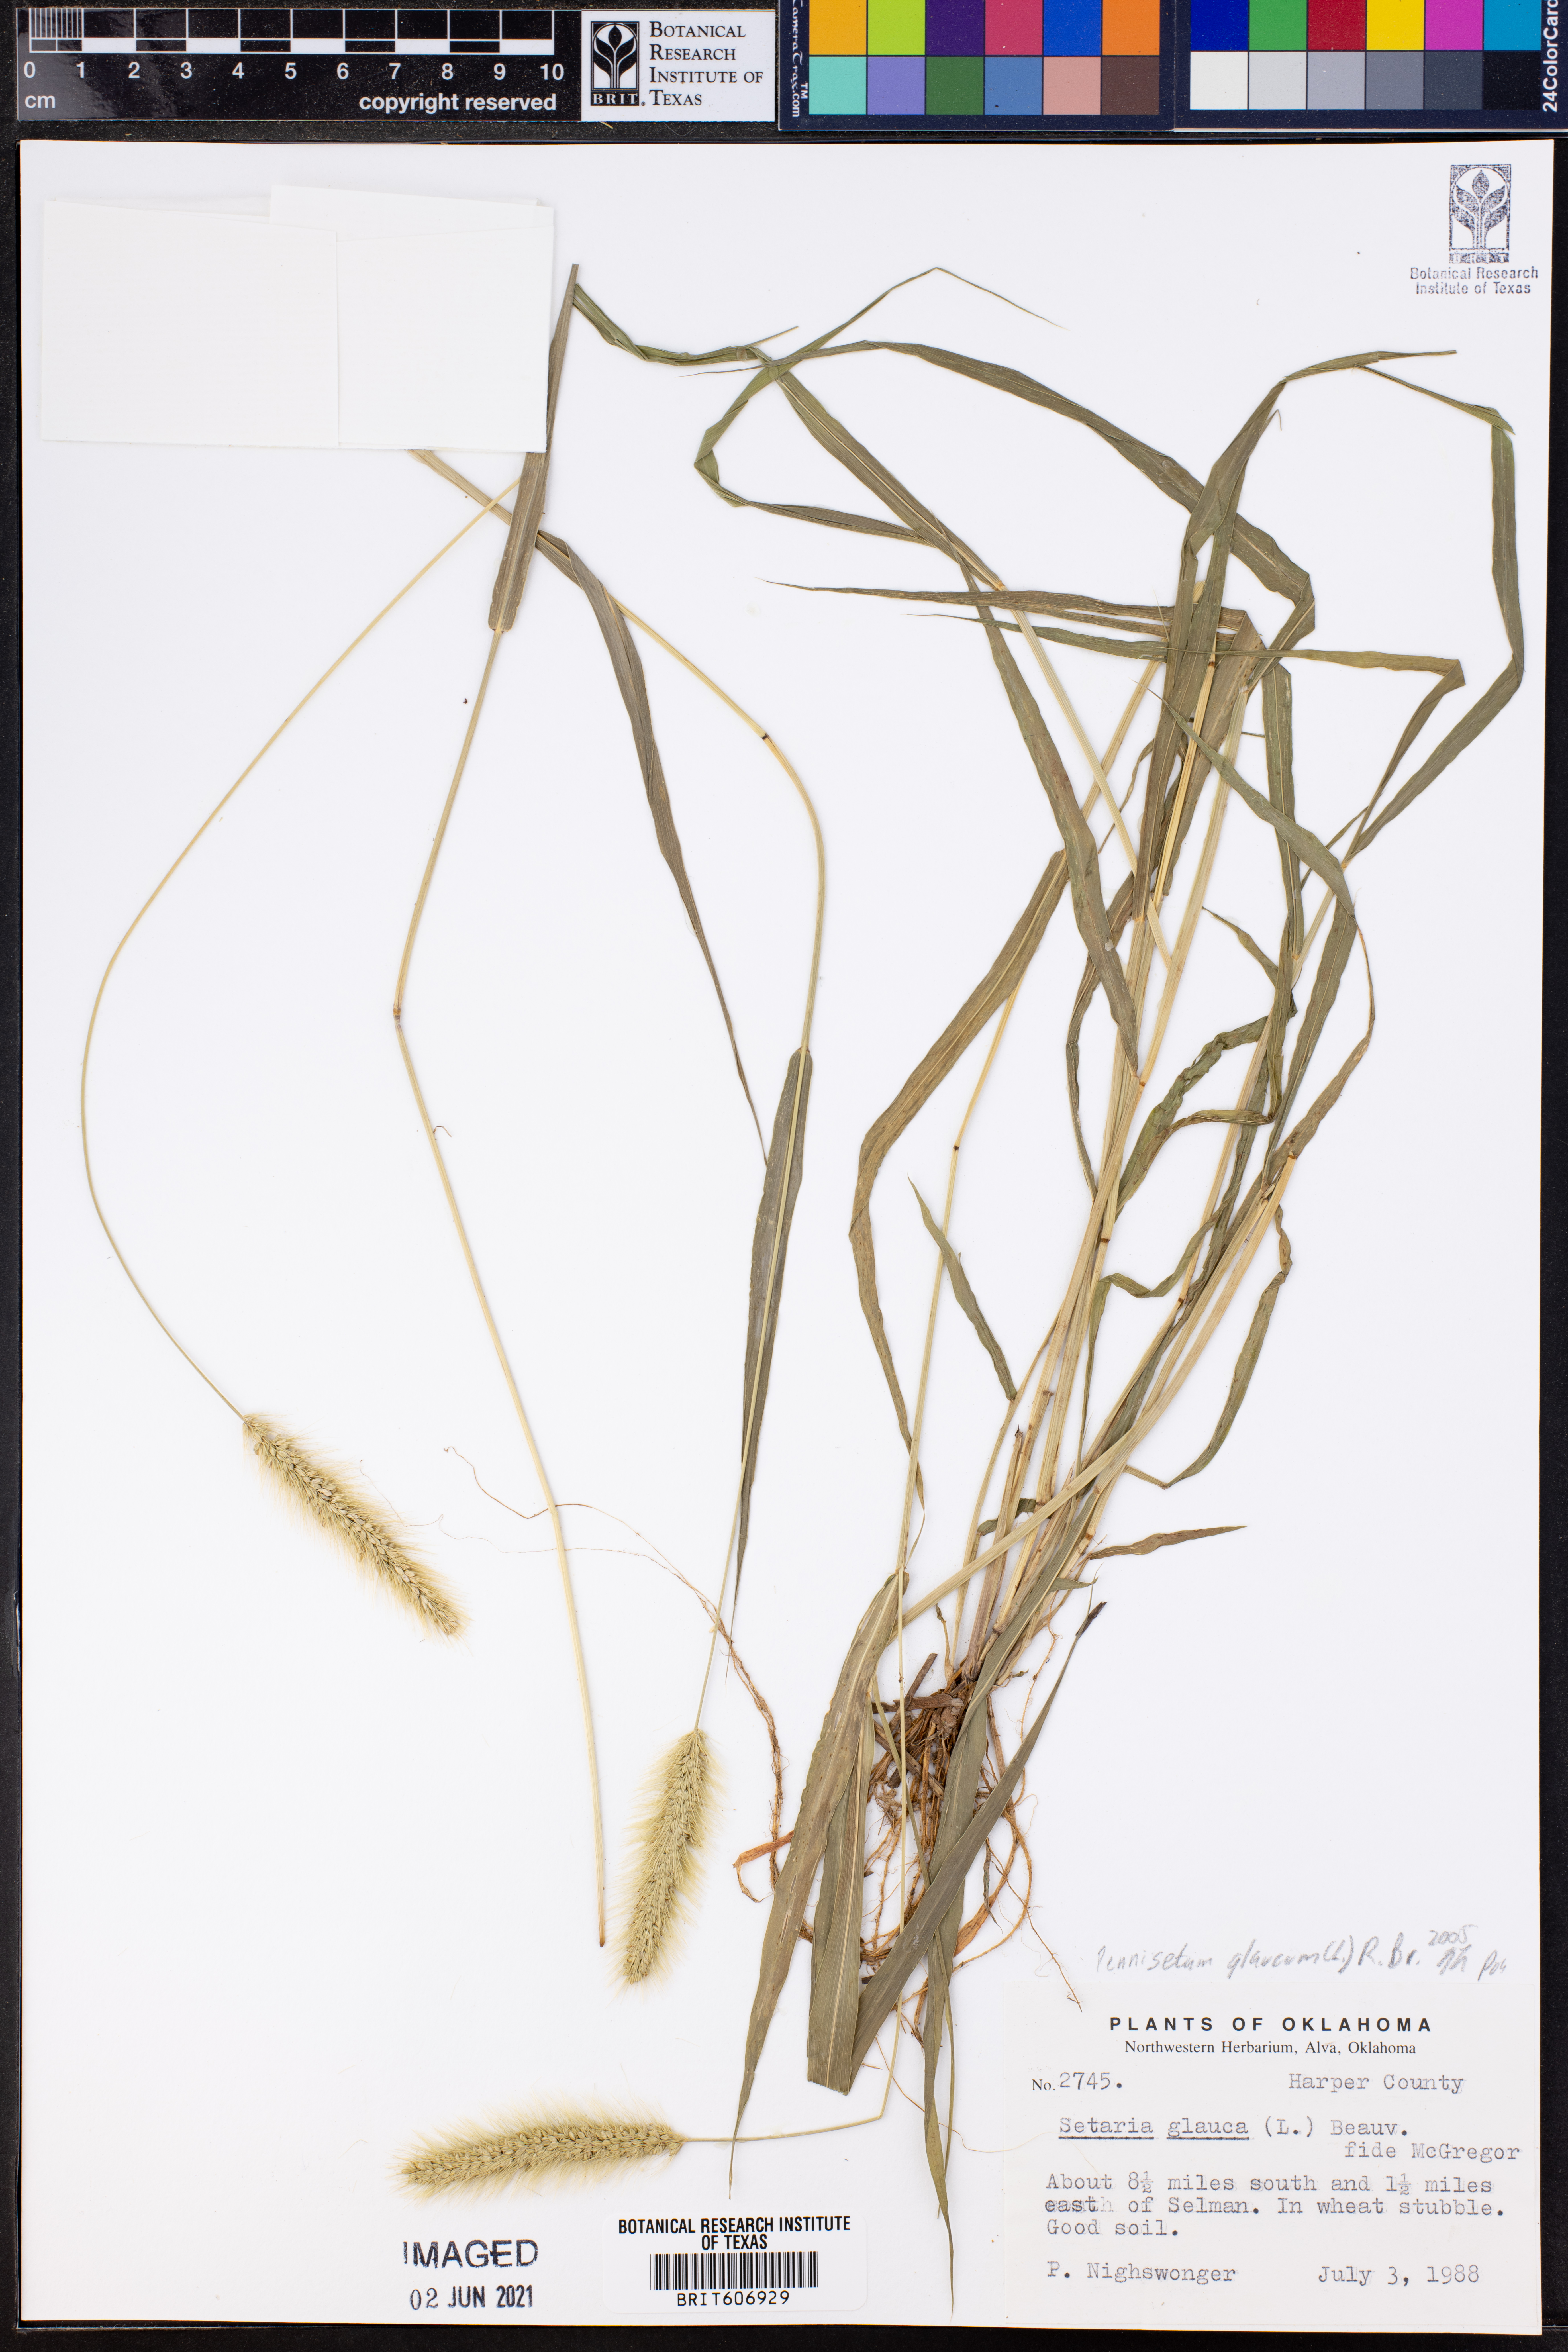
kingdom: Plantae
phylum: Tracheophyta
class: Liliopsida
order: Poales
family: Poaceae
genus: Cenchrus
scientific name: Cenchrus americanus
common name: Pearl millet
